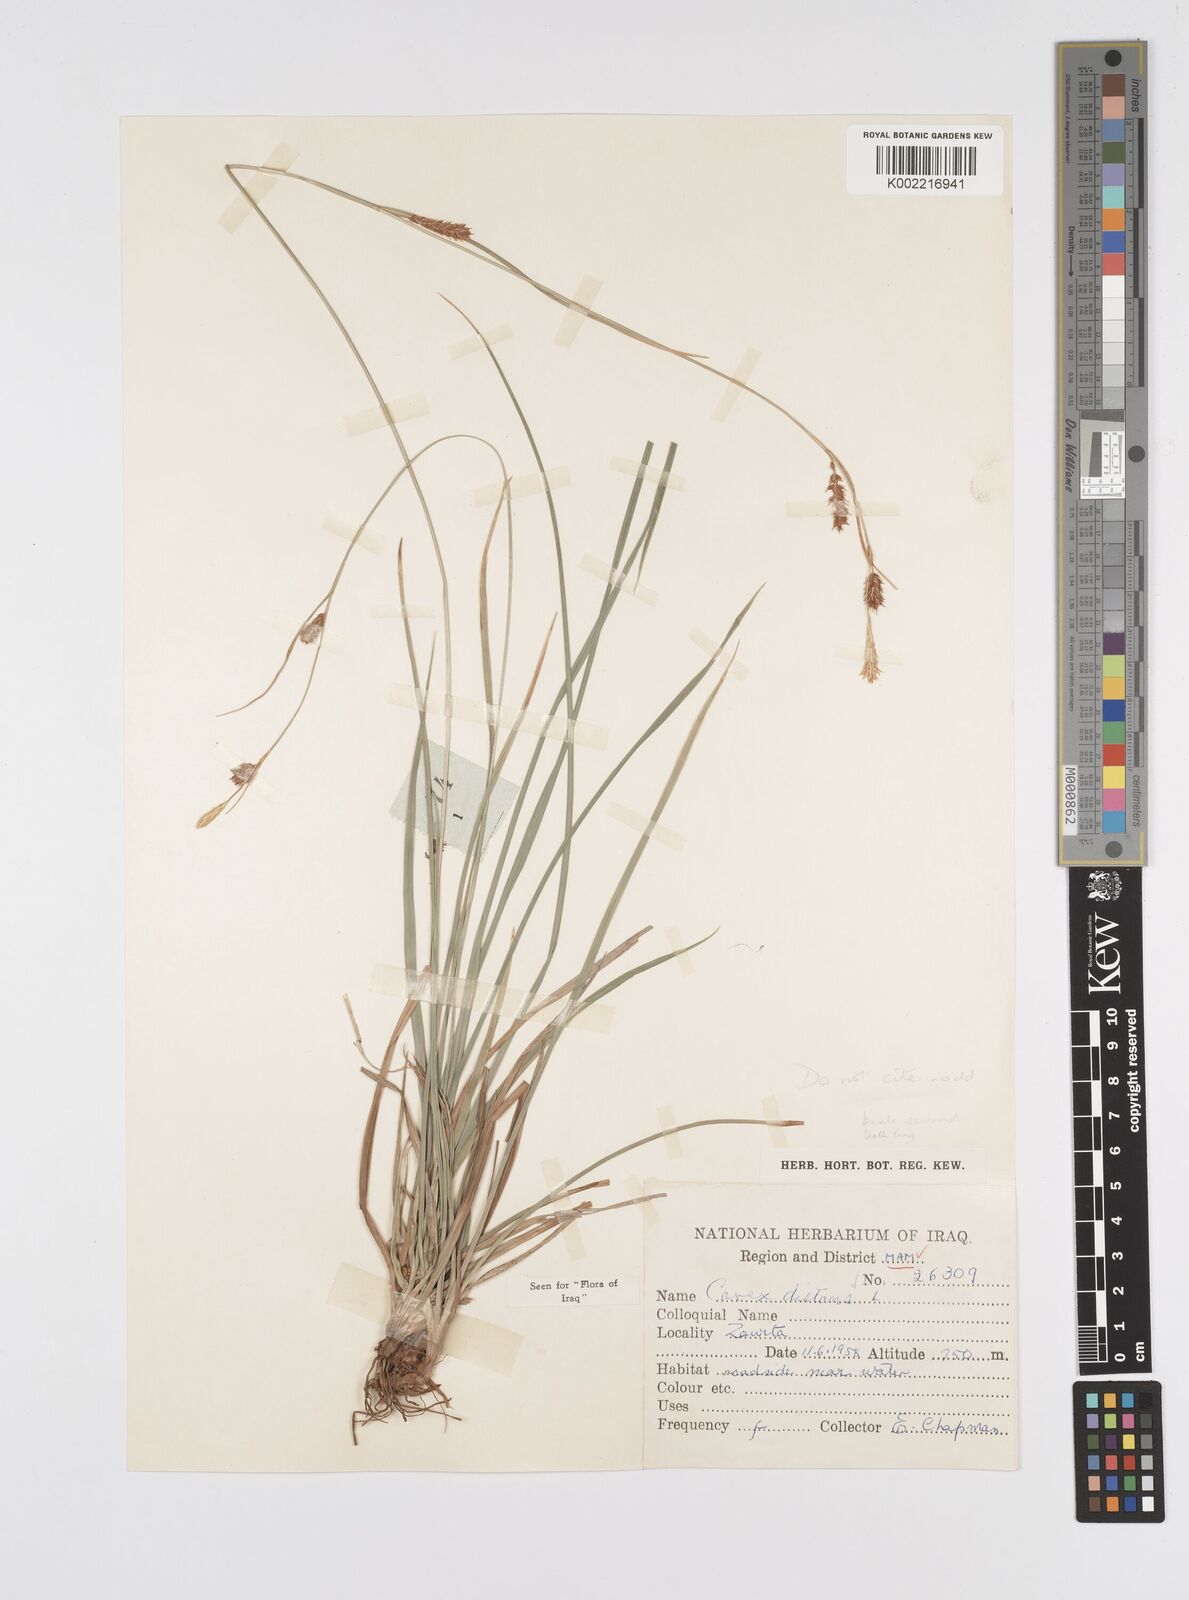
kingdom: Plantae
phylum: Tracheophyta
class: Liliopsida
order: Poales
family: Cyperaceae
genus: Carex
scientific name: Carex distans
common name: Distant sedge
